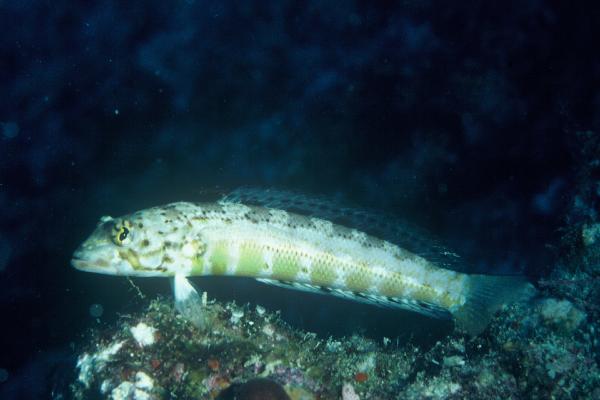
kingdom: Animalia
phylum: Chordata
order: Perciformes
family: Pinguipedidae
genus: Parapercis
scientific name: Parapercis signata
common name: Blackflag sandperch
